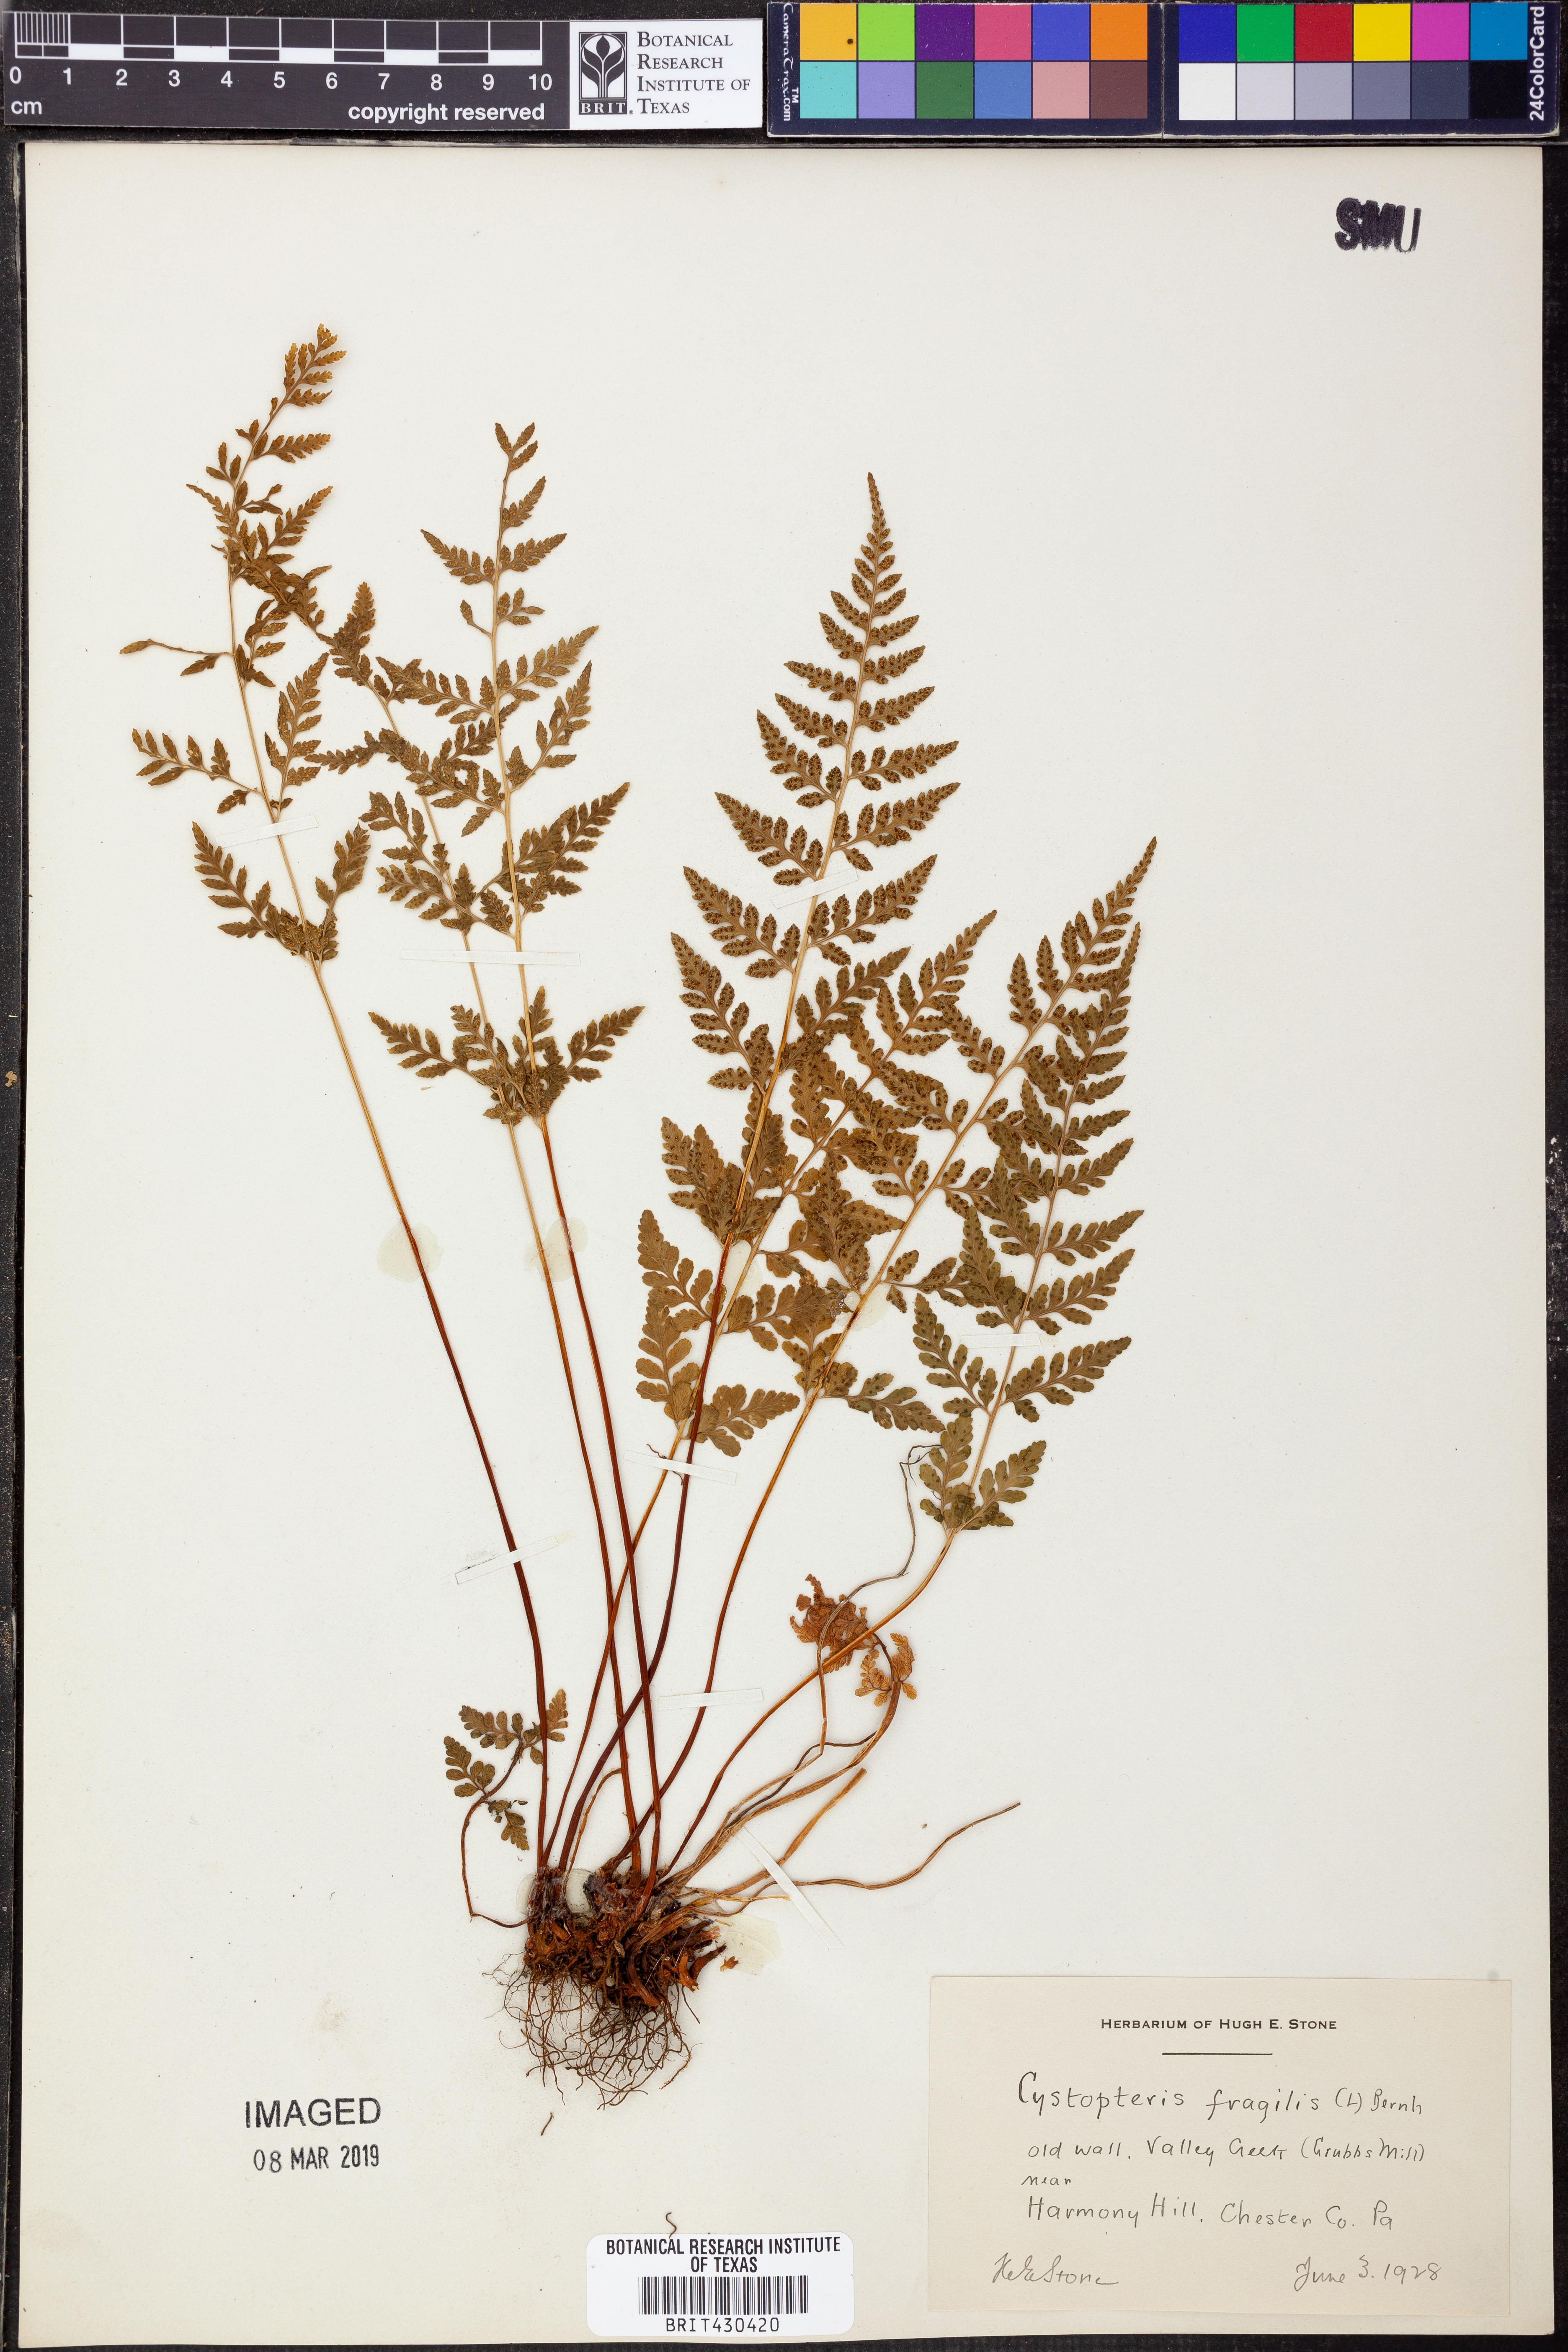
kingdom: Plantae
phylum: Tracheophyta
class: Polypodiopsida
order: Polypodiales
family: Cystopteridaceae
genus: Cystopteris
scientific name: Cystopteris fragilis
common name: Brittle bladder fern
